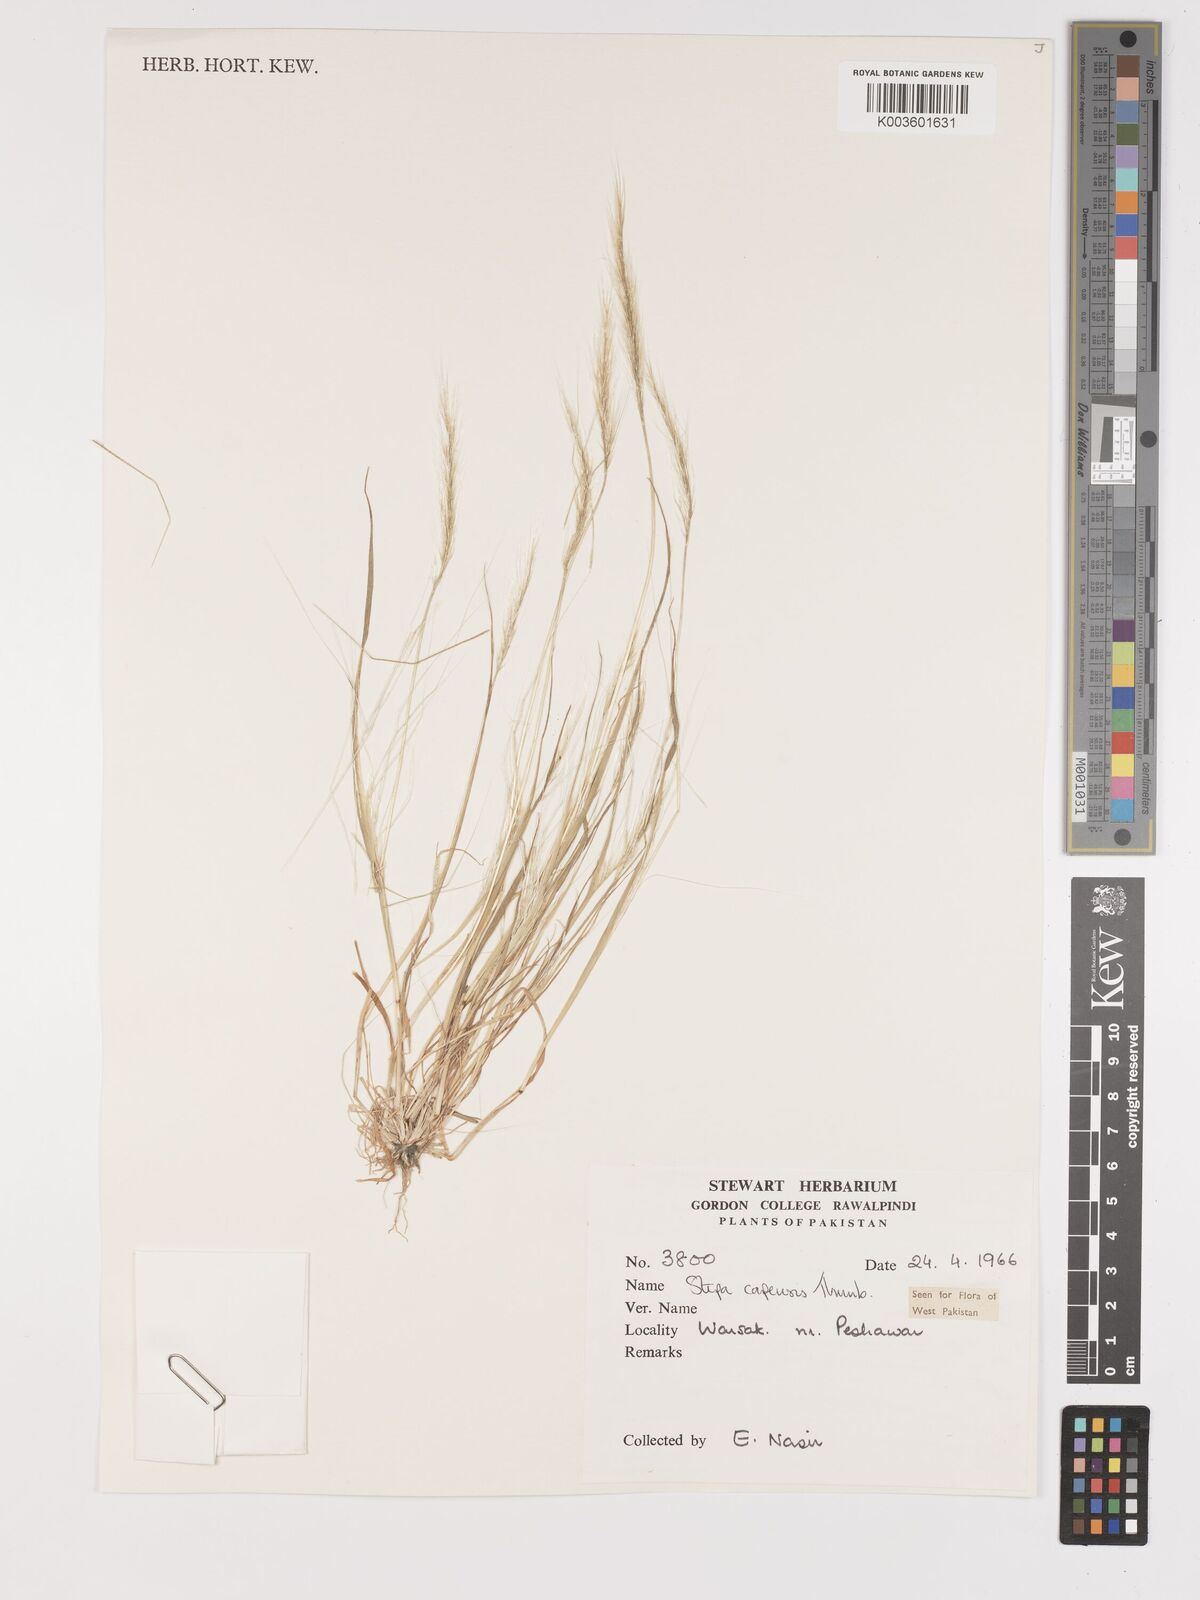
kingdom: Plantae
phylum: Tracheophyta
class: Liliopsida
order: Poales
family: Poaceae
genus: Stipellula
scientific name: Stipellula capensis
